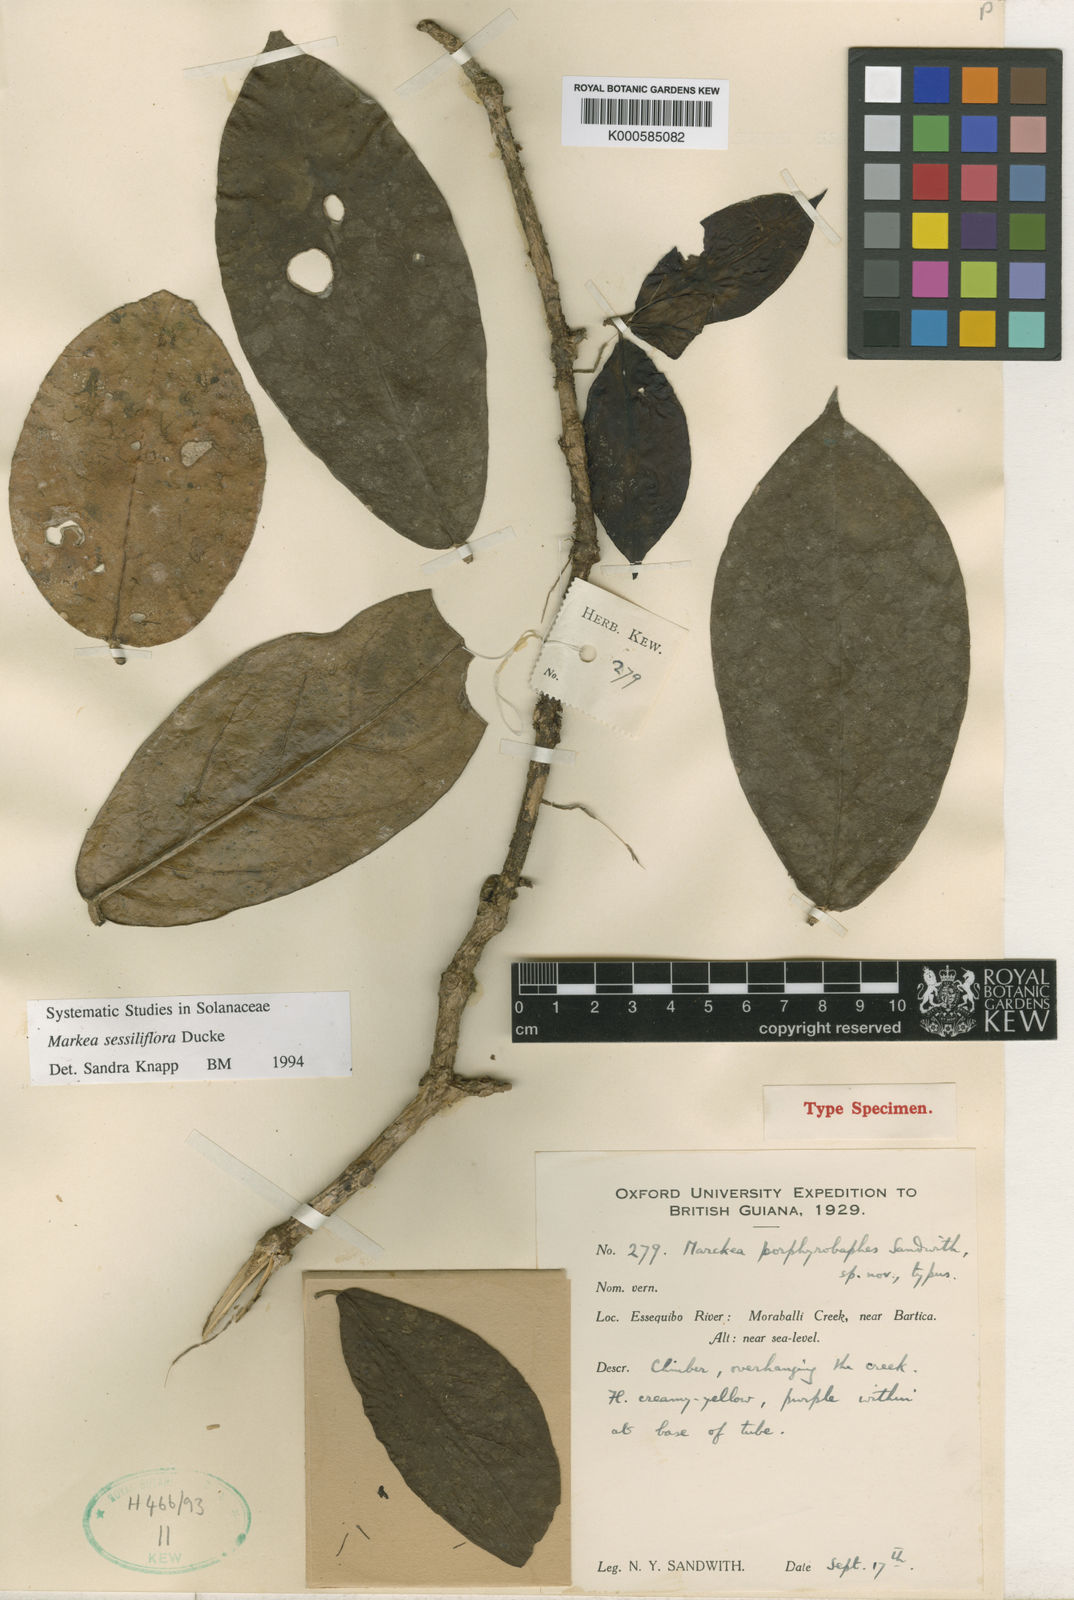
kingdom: Plantae
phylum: Tracheophyta
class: Magnoliopsida
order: Solanales
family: Solanaceae
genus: Markea
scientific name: Markea sessiliflora
